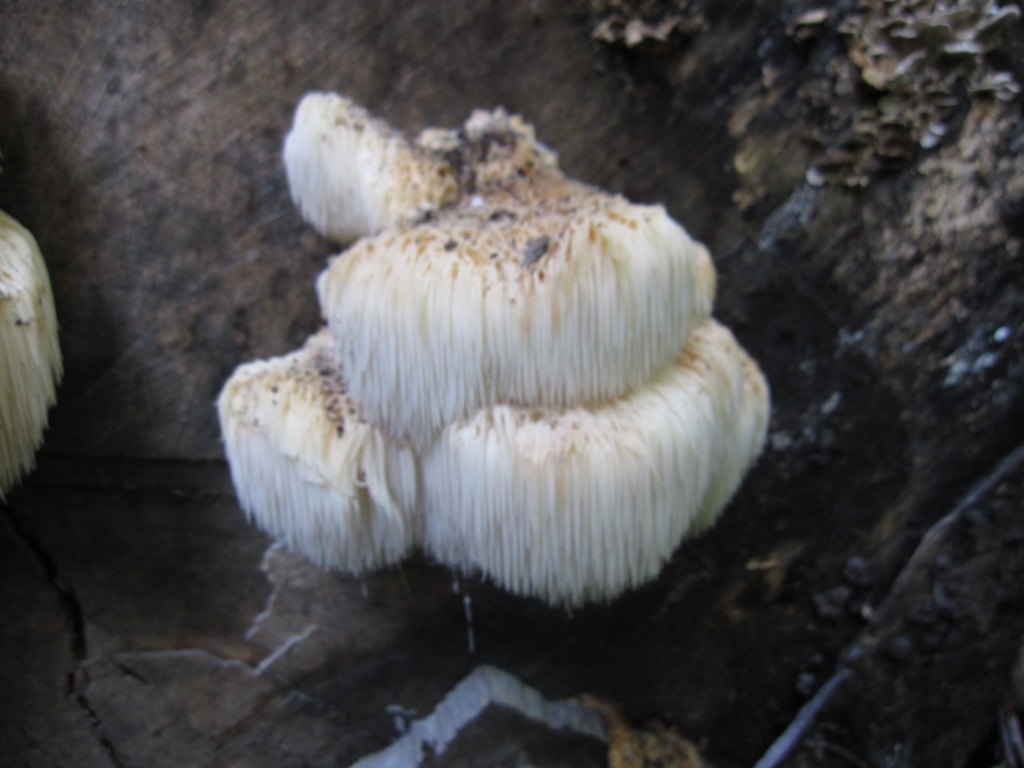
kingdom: Fungi
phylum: Basidiomycota
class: Agaricomycetes
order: Russulales
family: Hericiaceae
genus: Hericium
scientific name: Hericium erinaceus
